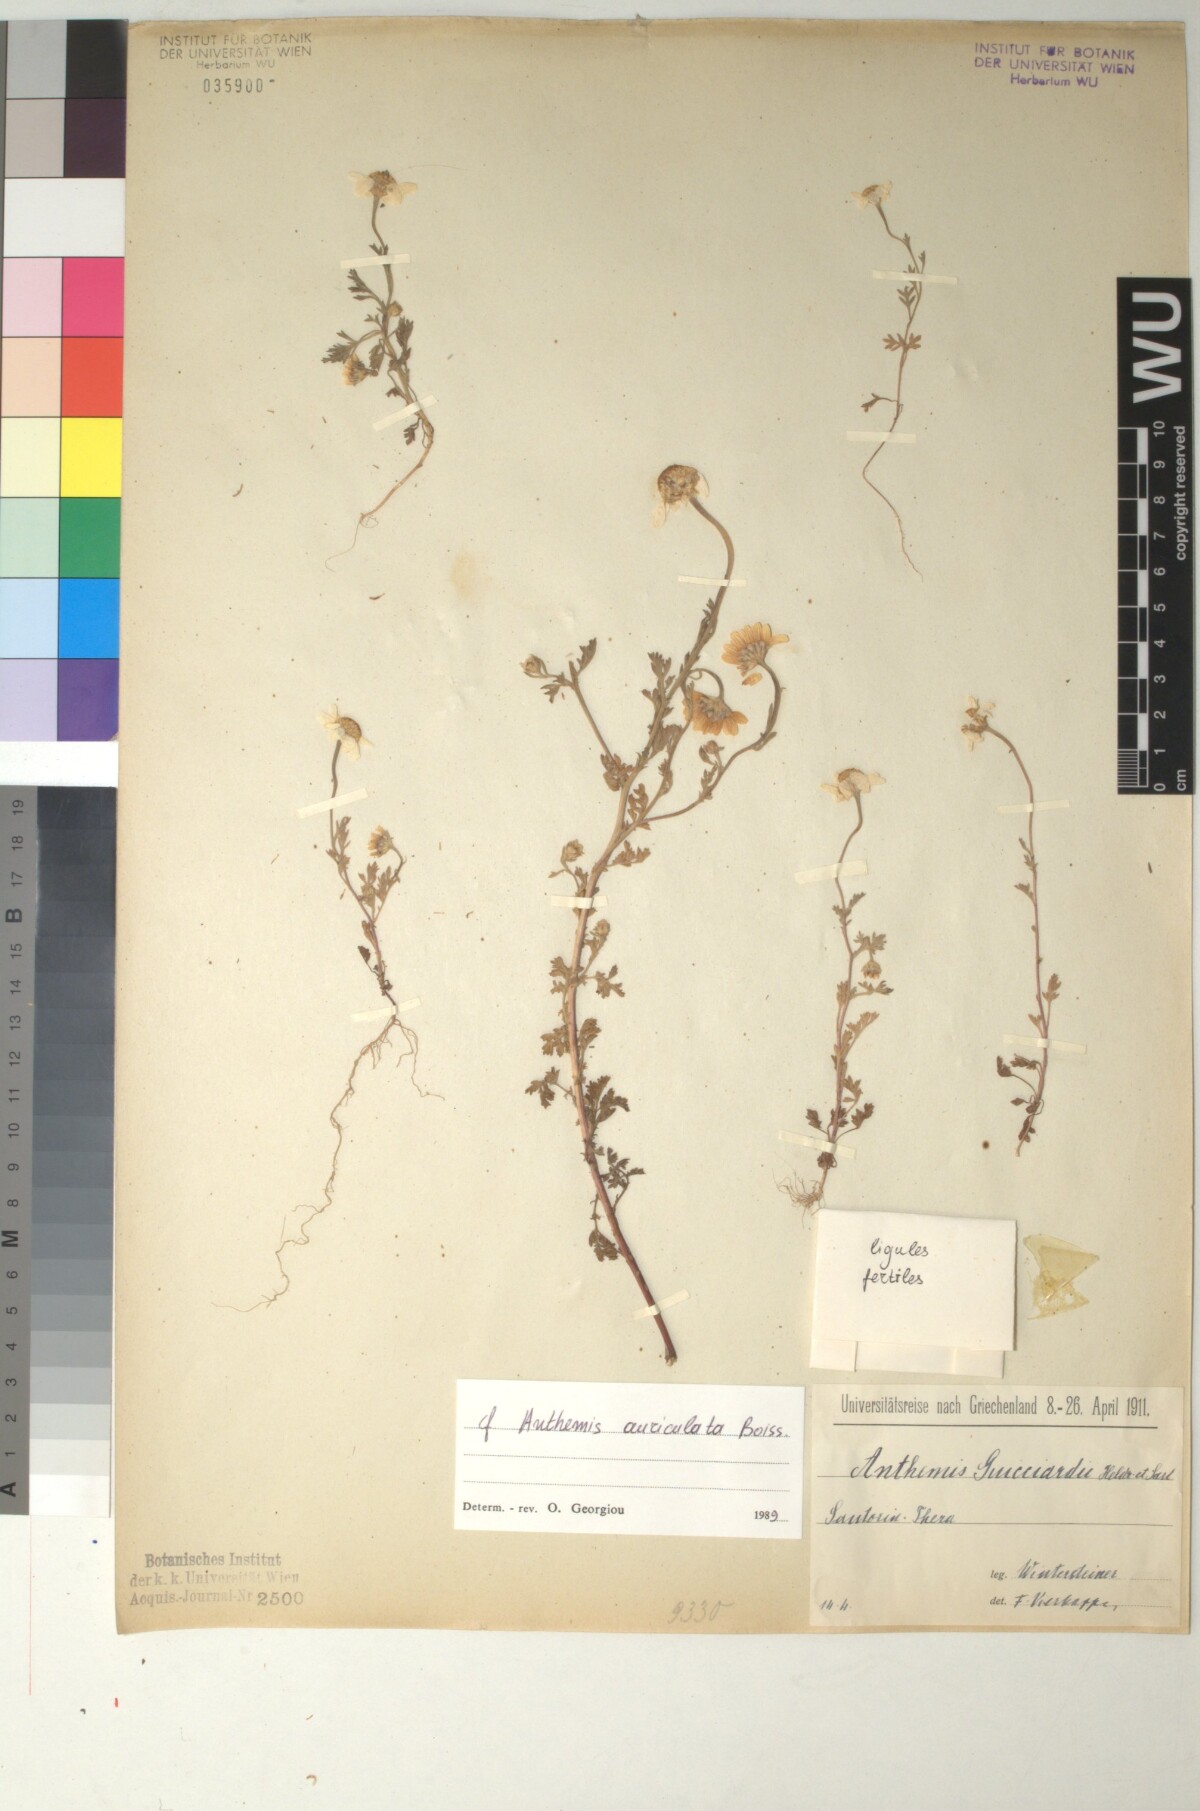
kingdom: Plantae
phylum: Tracheophyta
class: Magnoliopsida
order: Asterales
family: Asteraceae
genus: Anthemis
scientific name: Anthemis auriculata
